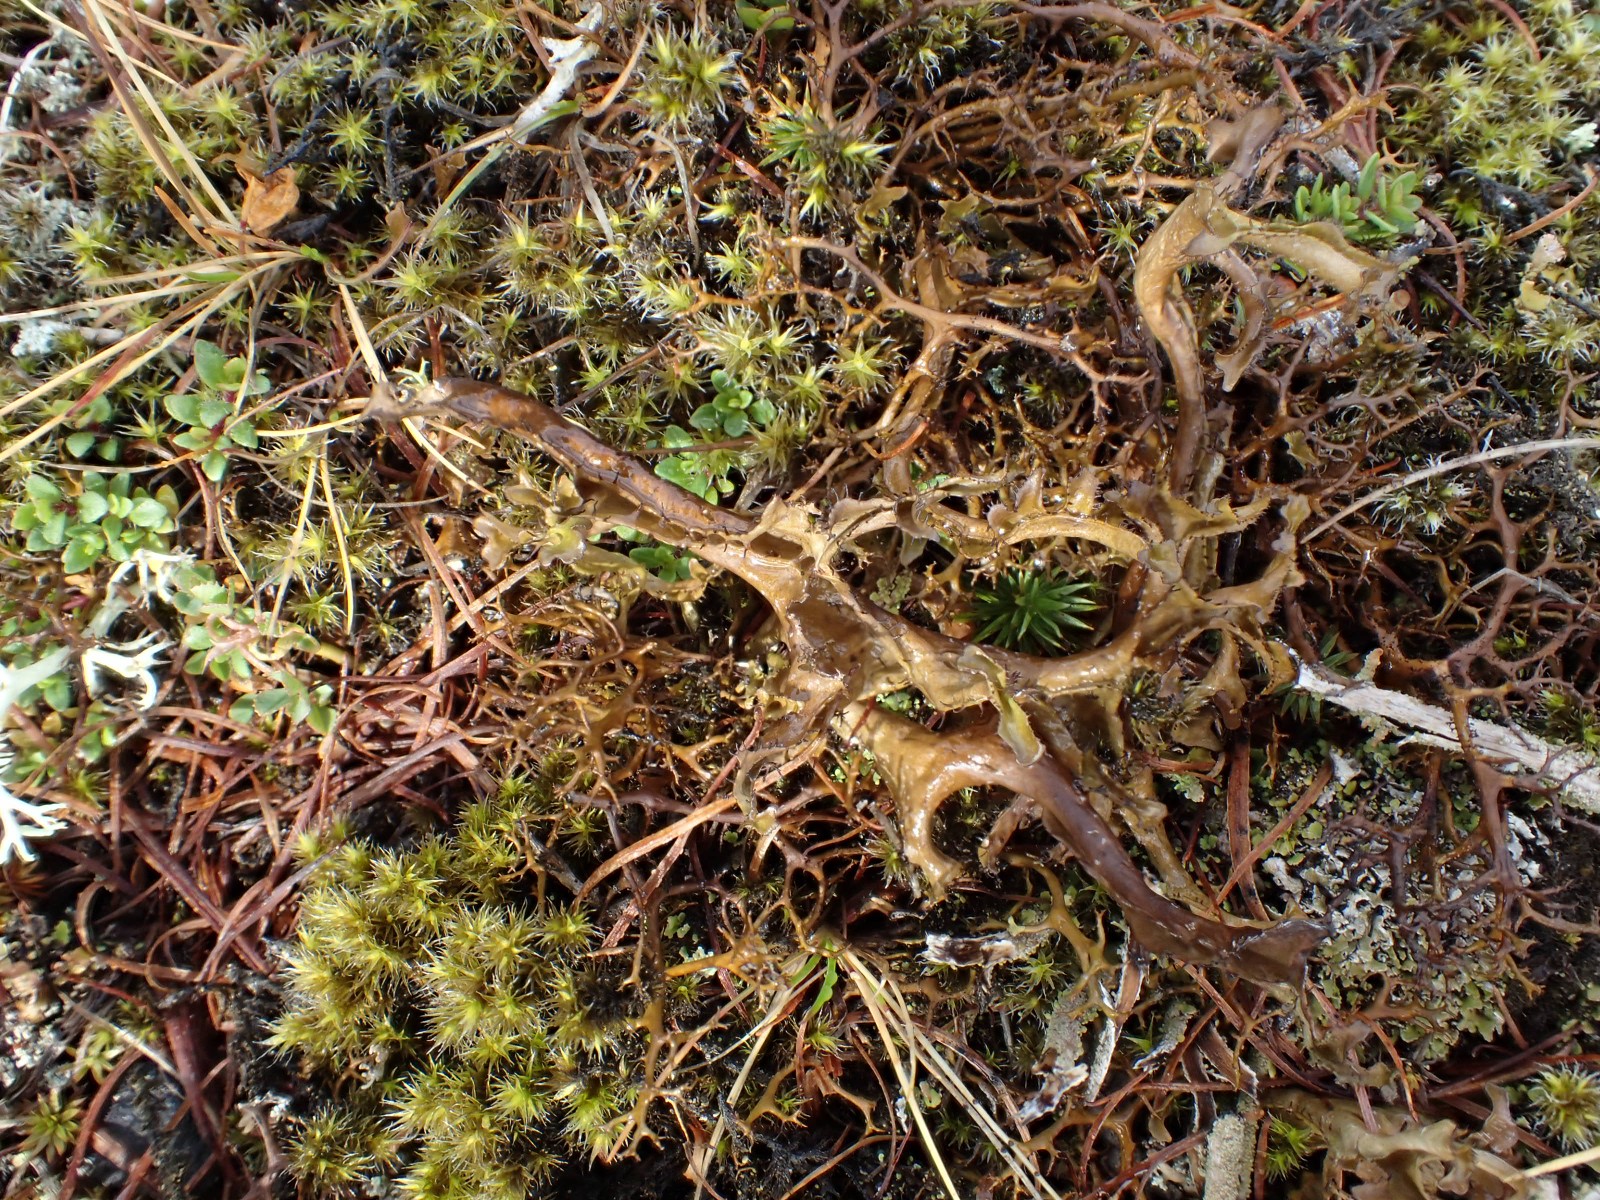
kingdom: Fungi
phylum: Ascomycota
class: Lecanoromycetes
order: Lecanorales
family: Parmeliaceae
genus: Cetraria
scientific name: Cetraria islandica
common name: islandsk kruslav
